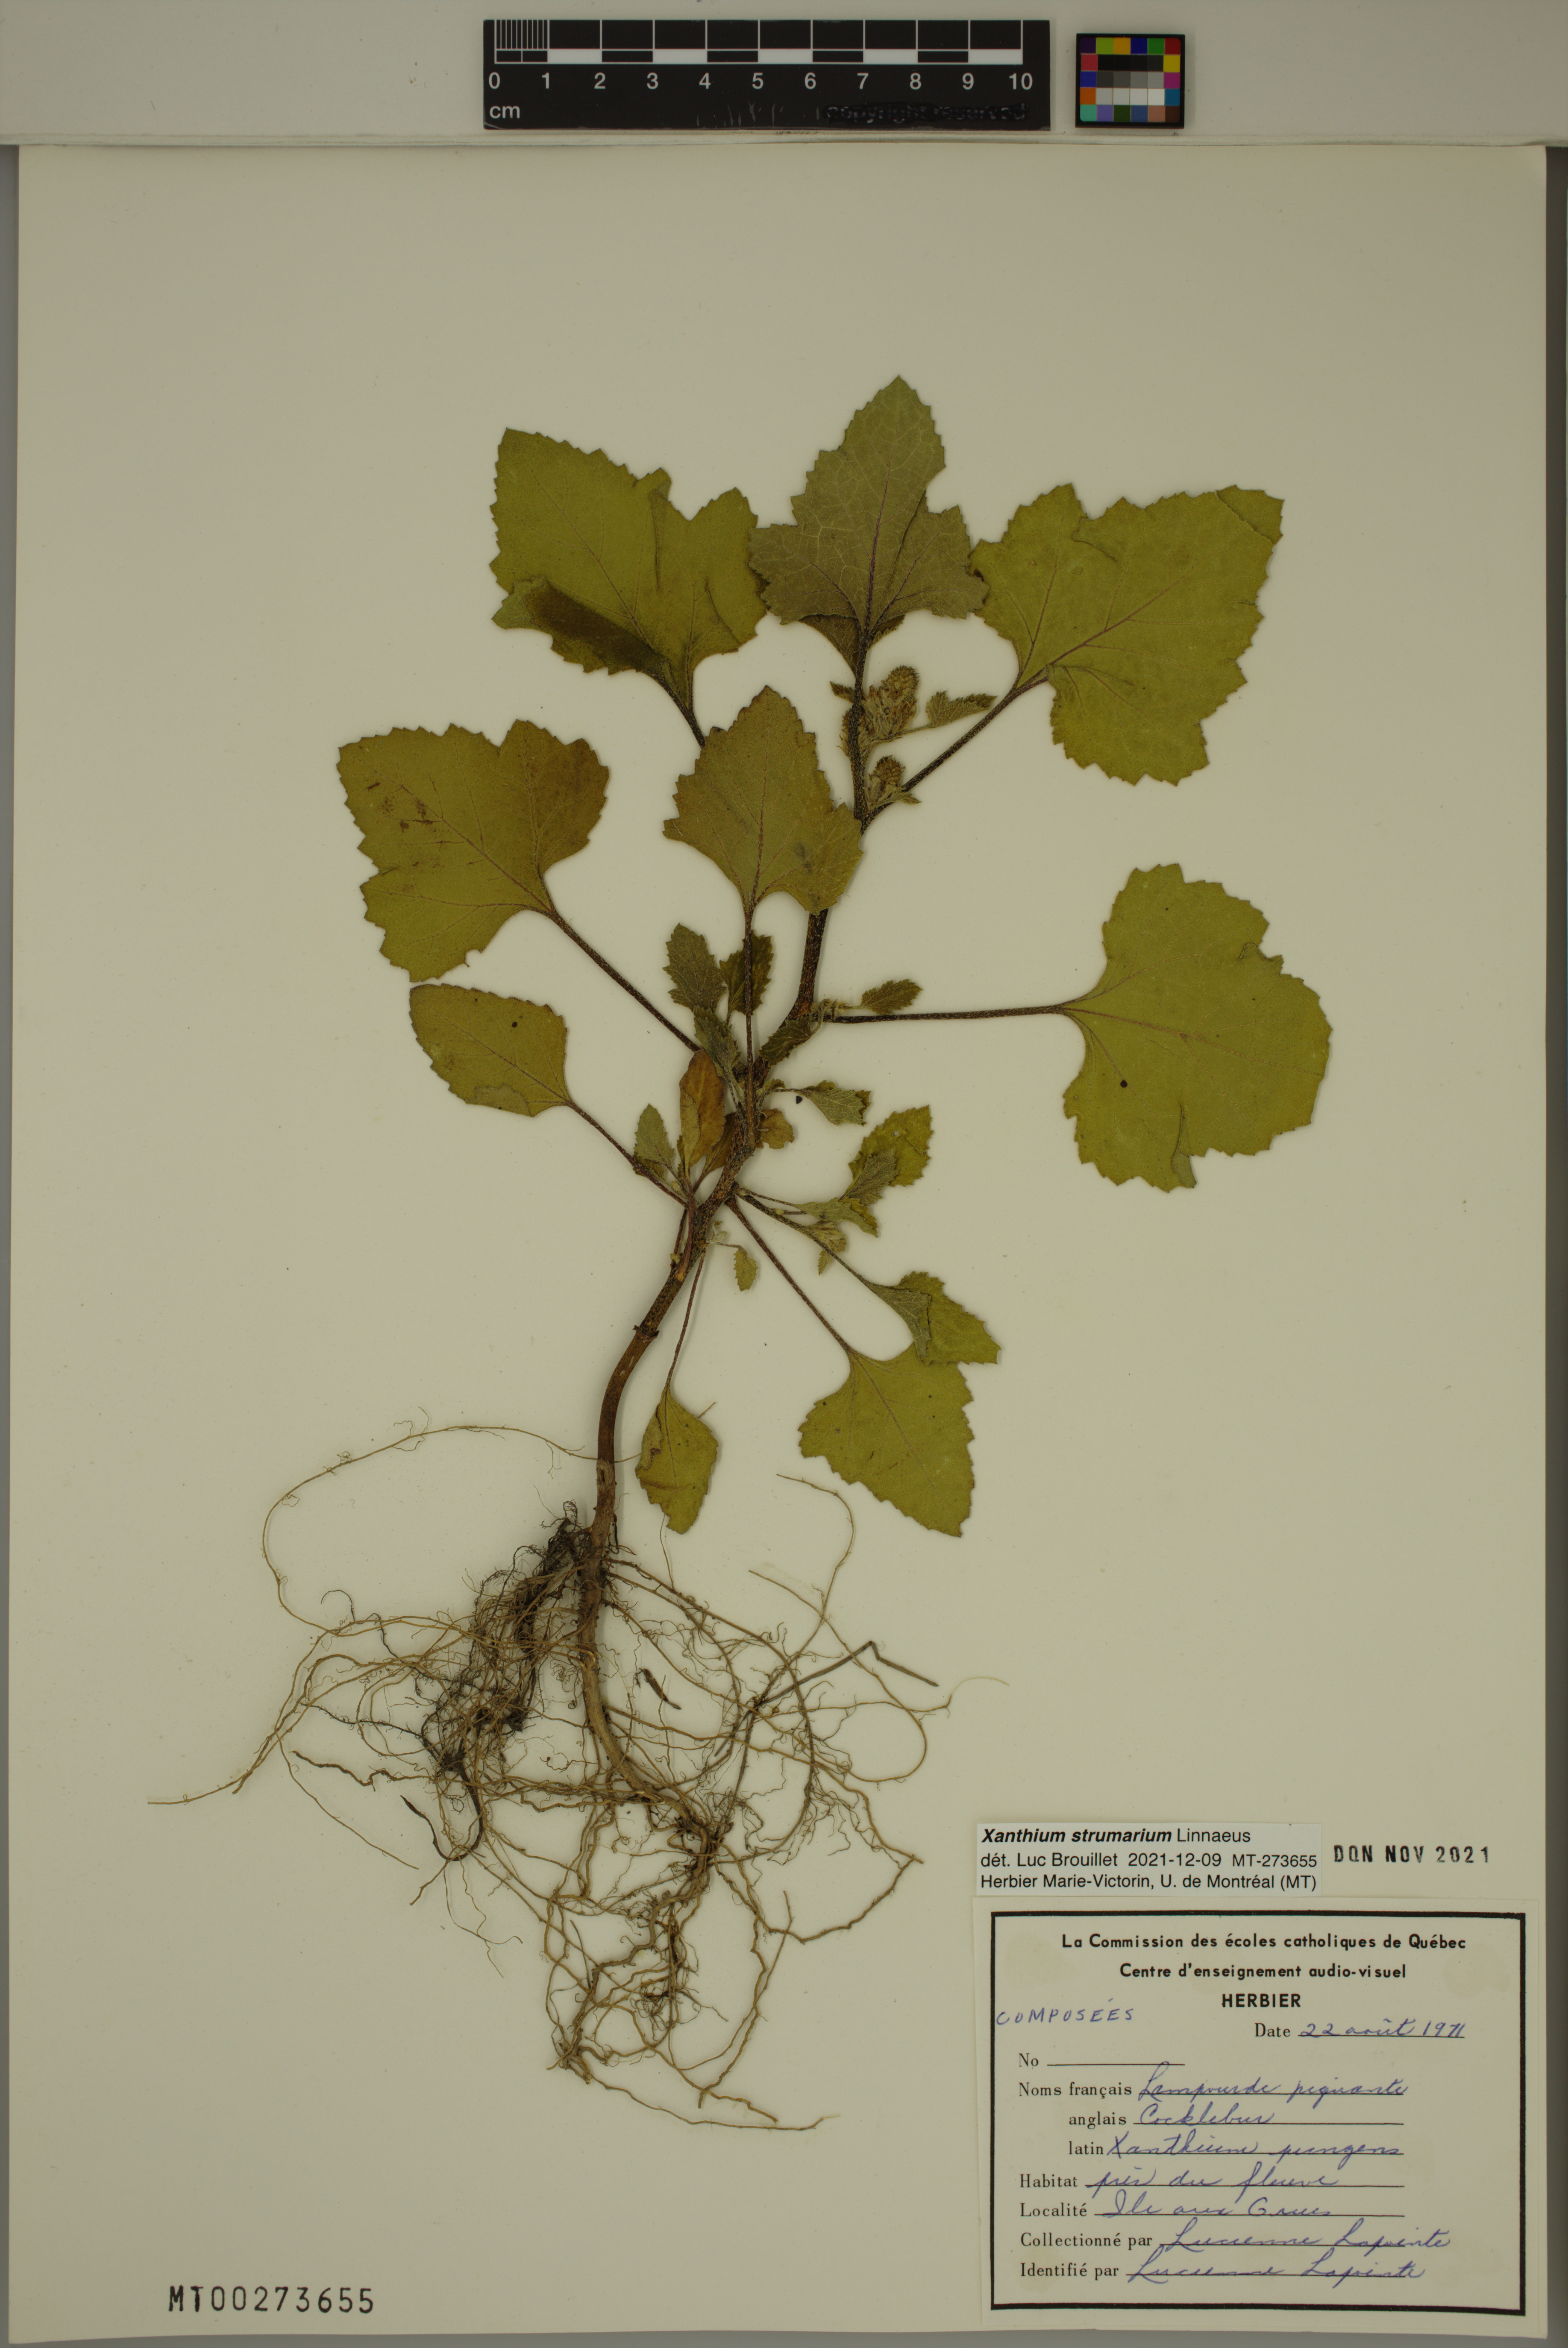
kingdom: Plantae
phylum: Tracheophyta
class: Magnoliopsida
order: Asterales
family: Asteraceae
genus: Xanthium
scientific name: Xanthium strumarium
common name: Rough cocklebur
